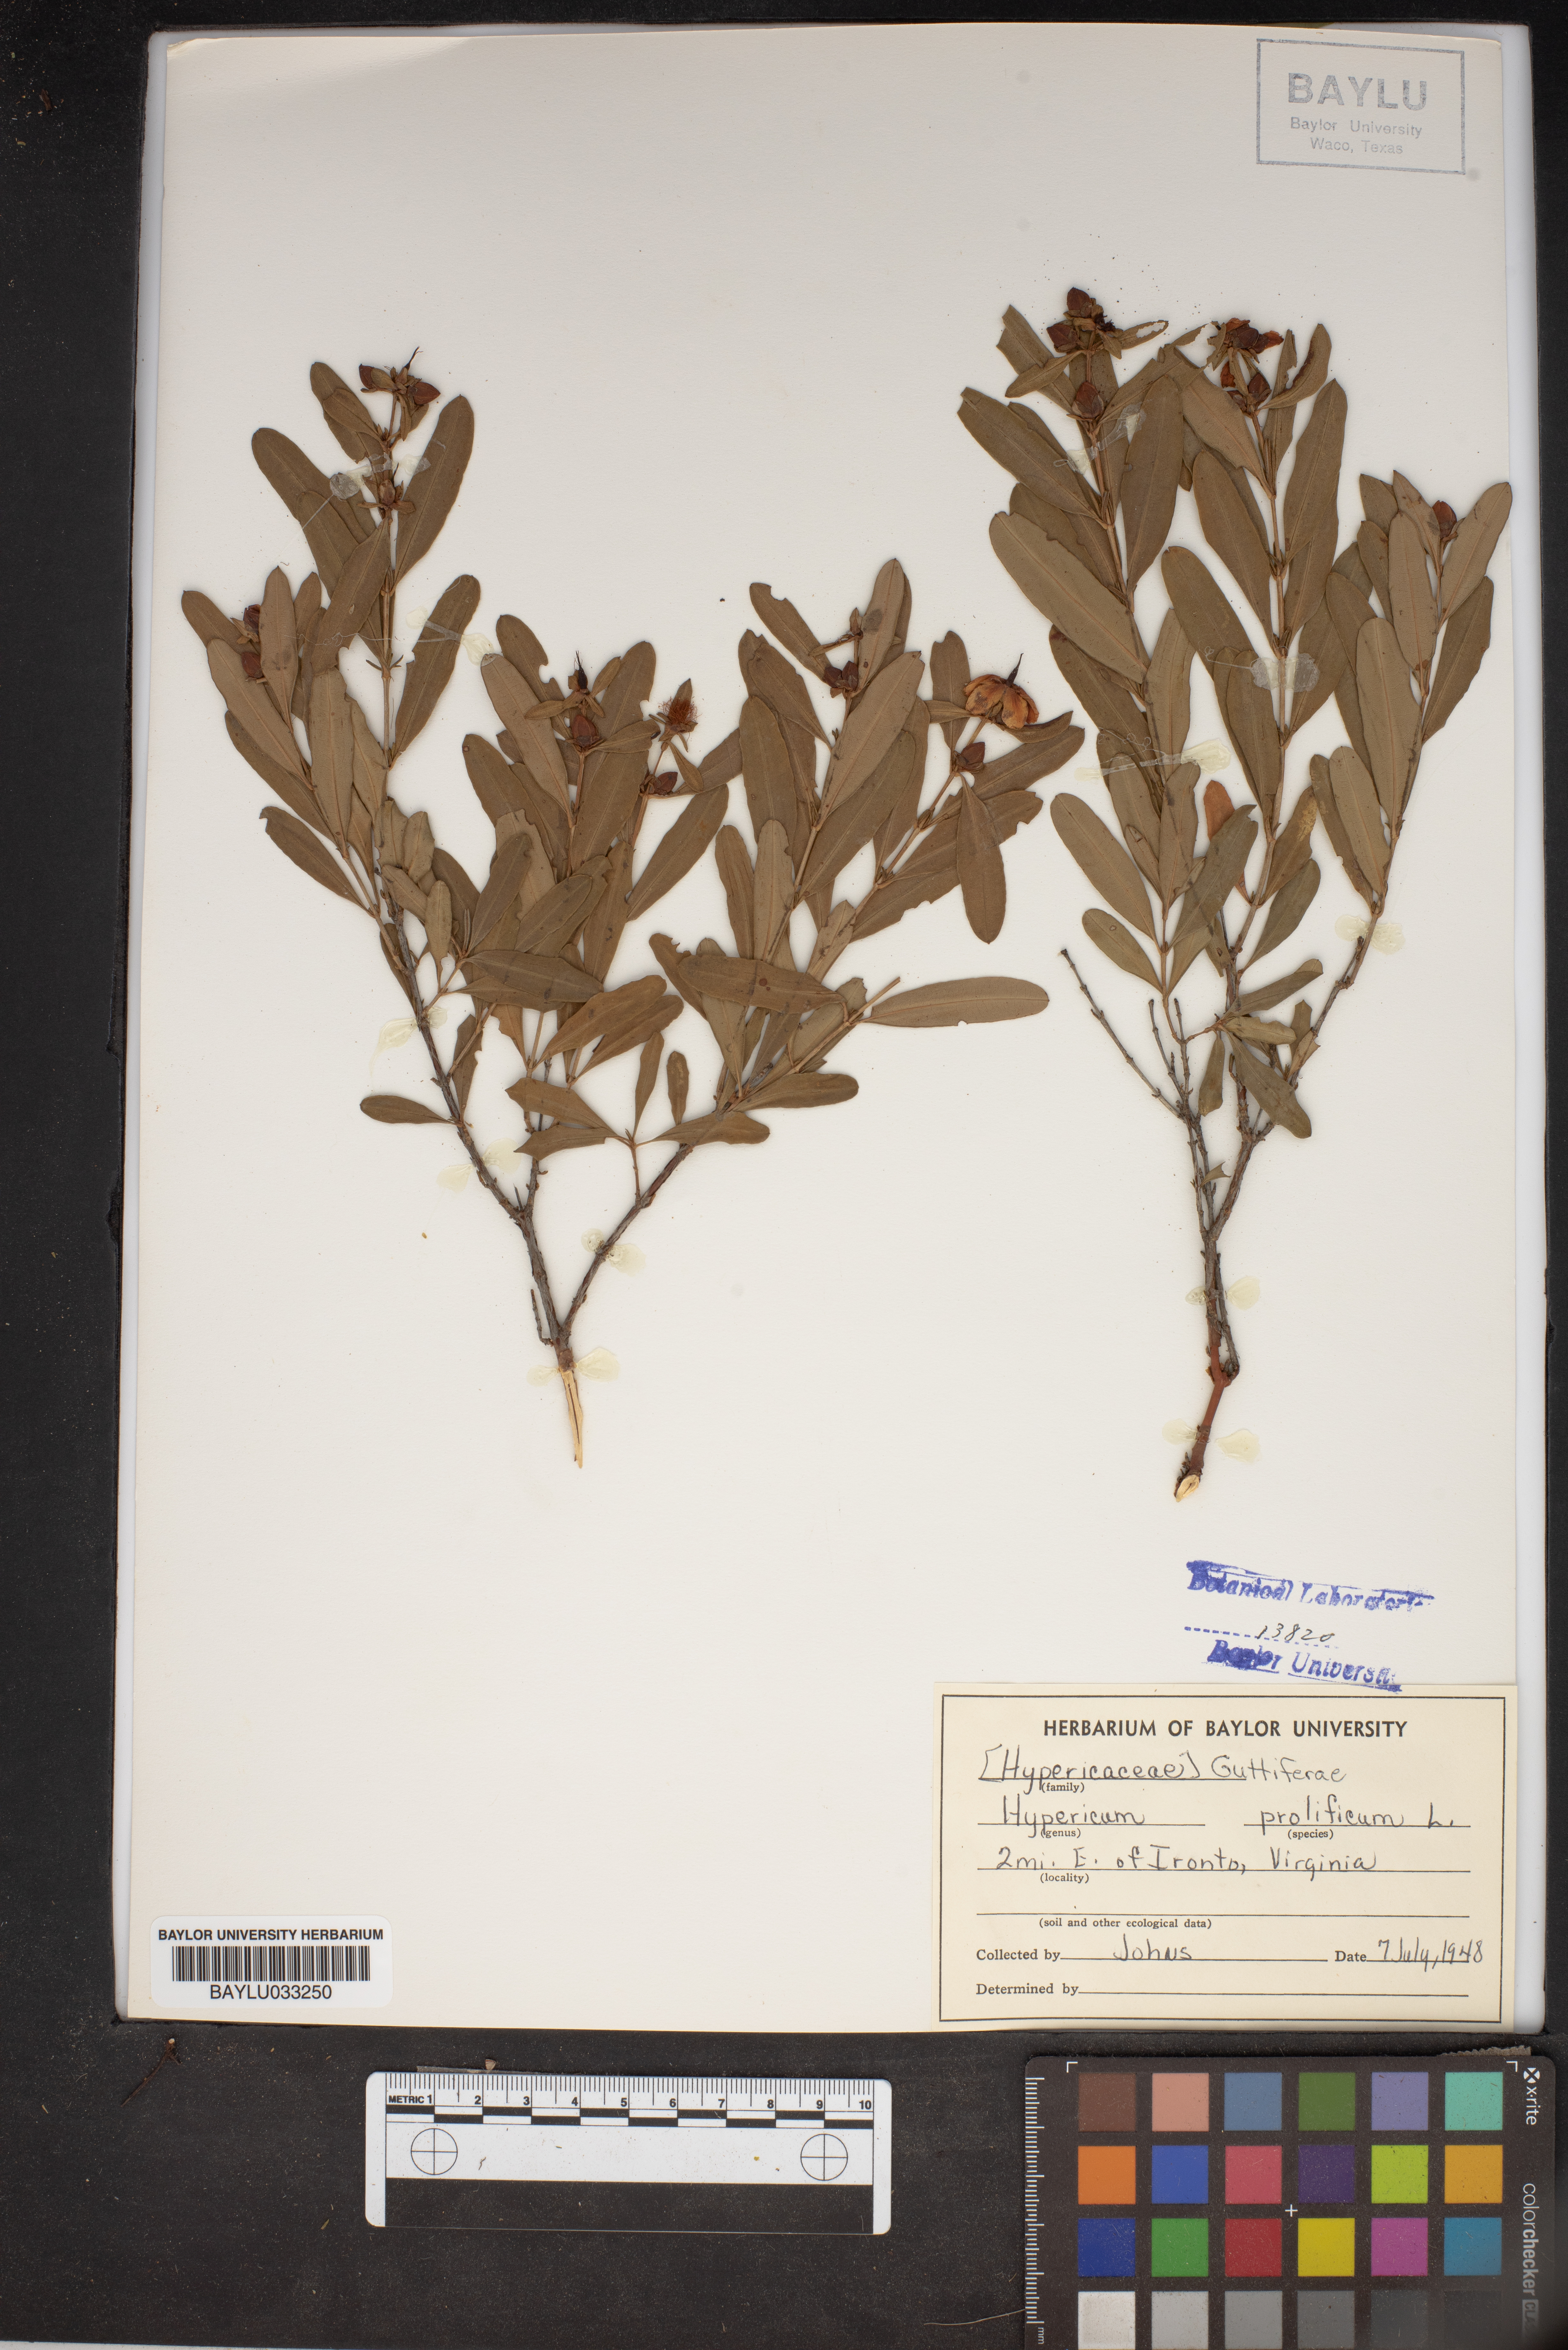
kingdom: Plantae
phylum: Tracheophyta
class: Magnoliopsida
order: Malpighiales
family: Hypericaceae
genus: Hypericum
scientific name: Hypericum prolificum
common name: Shrubby st. john's-wort
